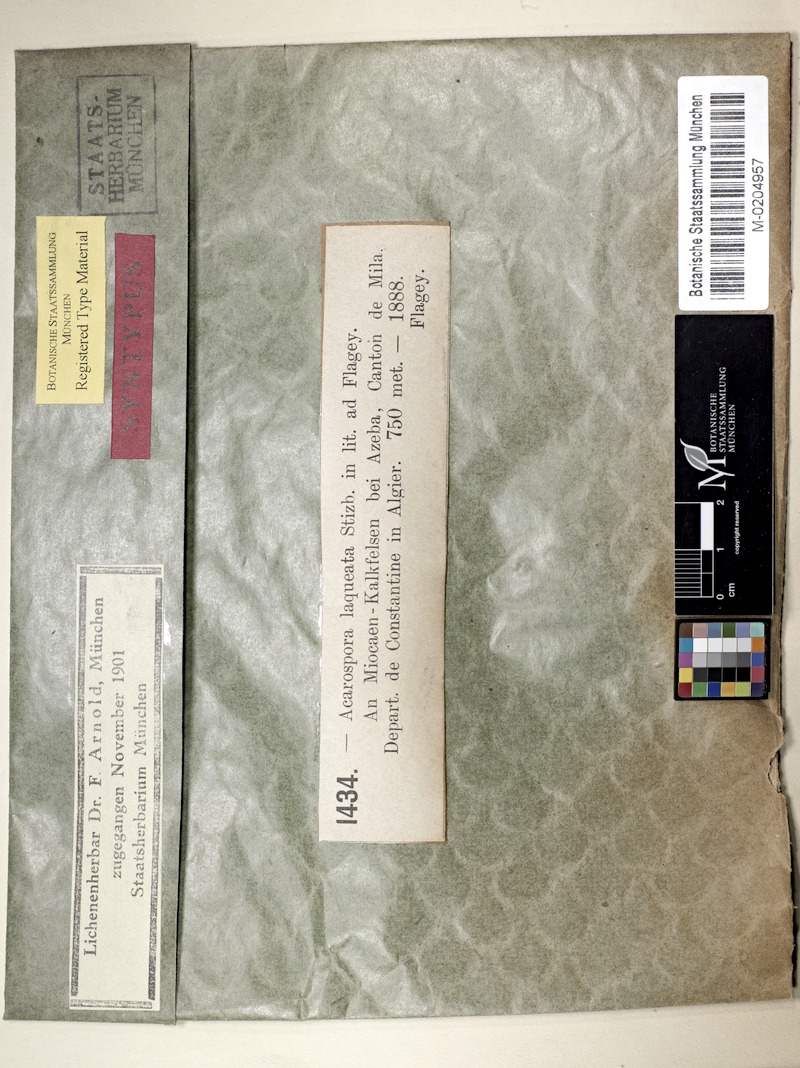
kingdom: Fungi
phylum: Ascomycota
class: Lecanoromycetes
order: Acarosporales
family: Acarosporaceae
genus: Acarospora
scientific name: Acarospora laqueata
